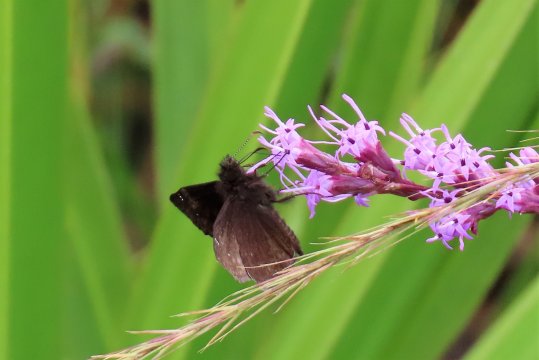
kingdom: Animalia
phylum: Arthropoda
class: Insecta
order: Lepidoptera
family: Hesperiidae
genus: Erynnis
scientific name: Erynnis zarucco
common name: Zarucco Duskywing
